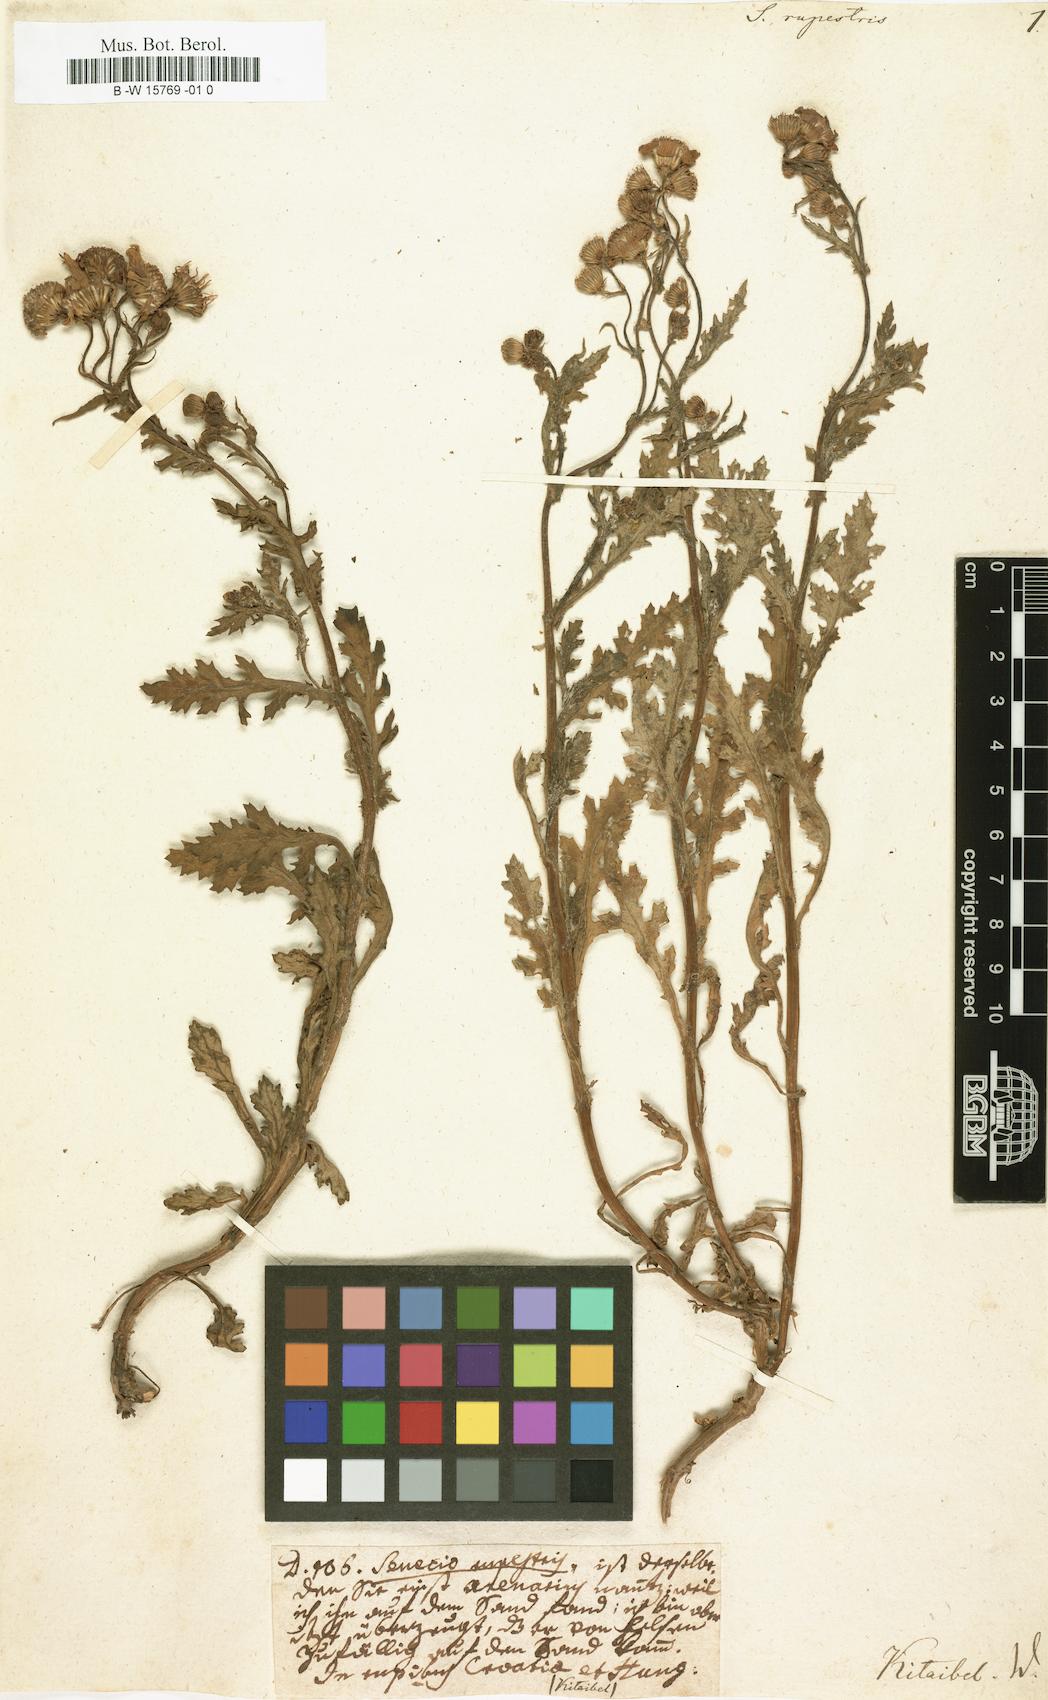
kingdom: Plantae
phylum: Tracheophyta
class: Magnoliopsida
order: Asterales
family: Asteraceae
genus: Senecio
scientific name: Senecio rupestris
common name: Rock ragwort
